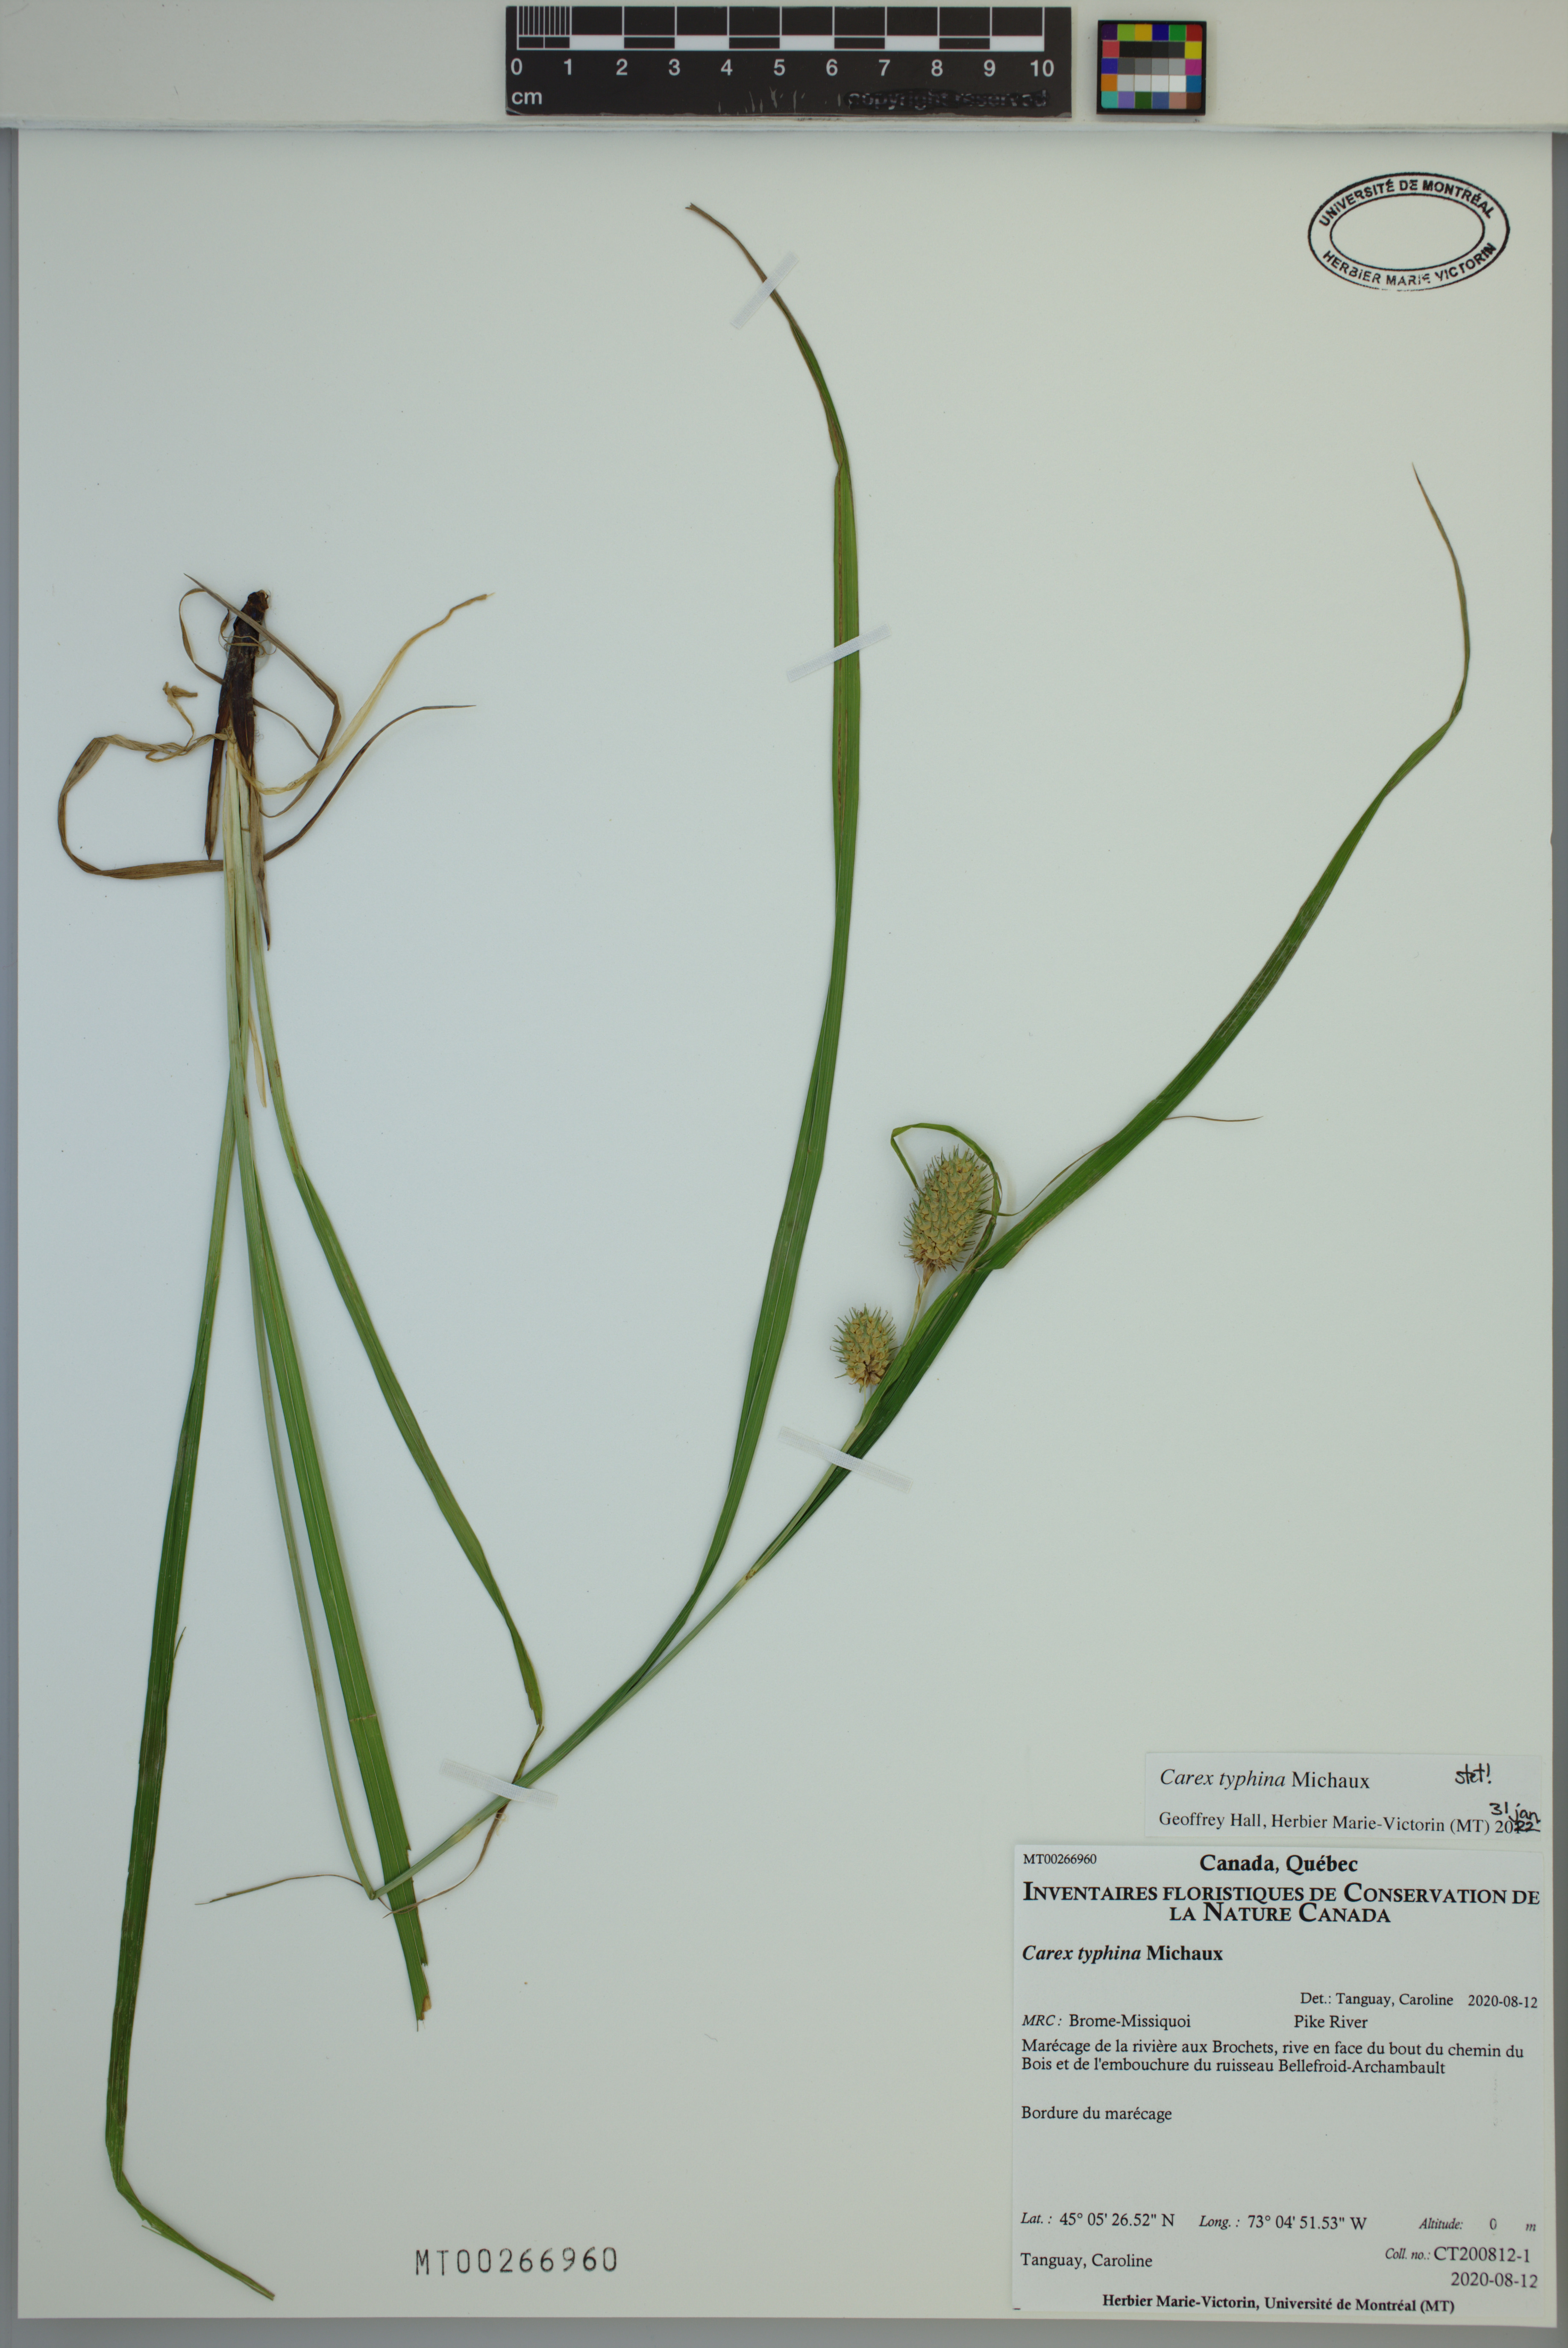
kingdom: Plantae
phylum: Tracheophyta
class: Liliopsida
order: Poales
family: Cyperaceae
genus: Carex
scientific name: Carex typhina
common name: Cattail sedge
